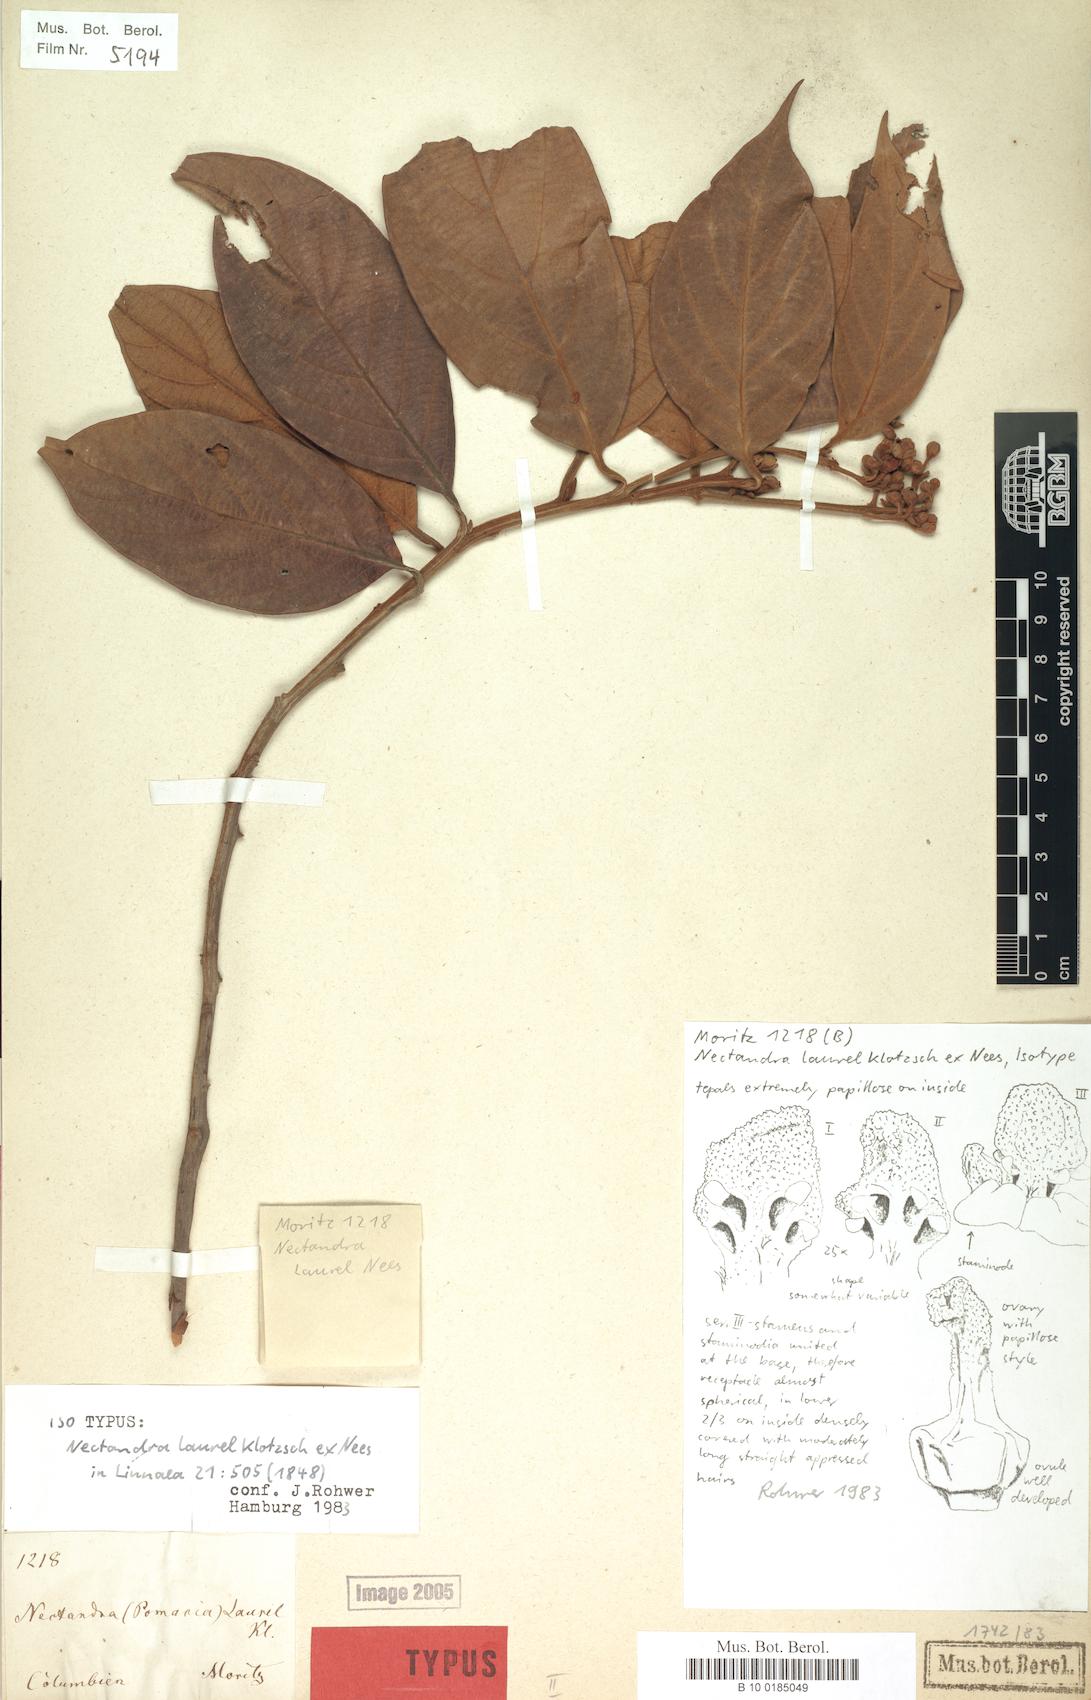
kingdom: Plantae
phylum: Tracheophyta
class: Magnoliopsida
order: Laurales
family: Lauraceae
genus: Nectandra
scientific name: Nectandra laurel
